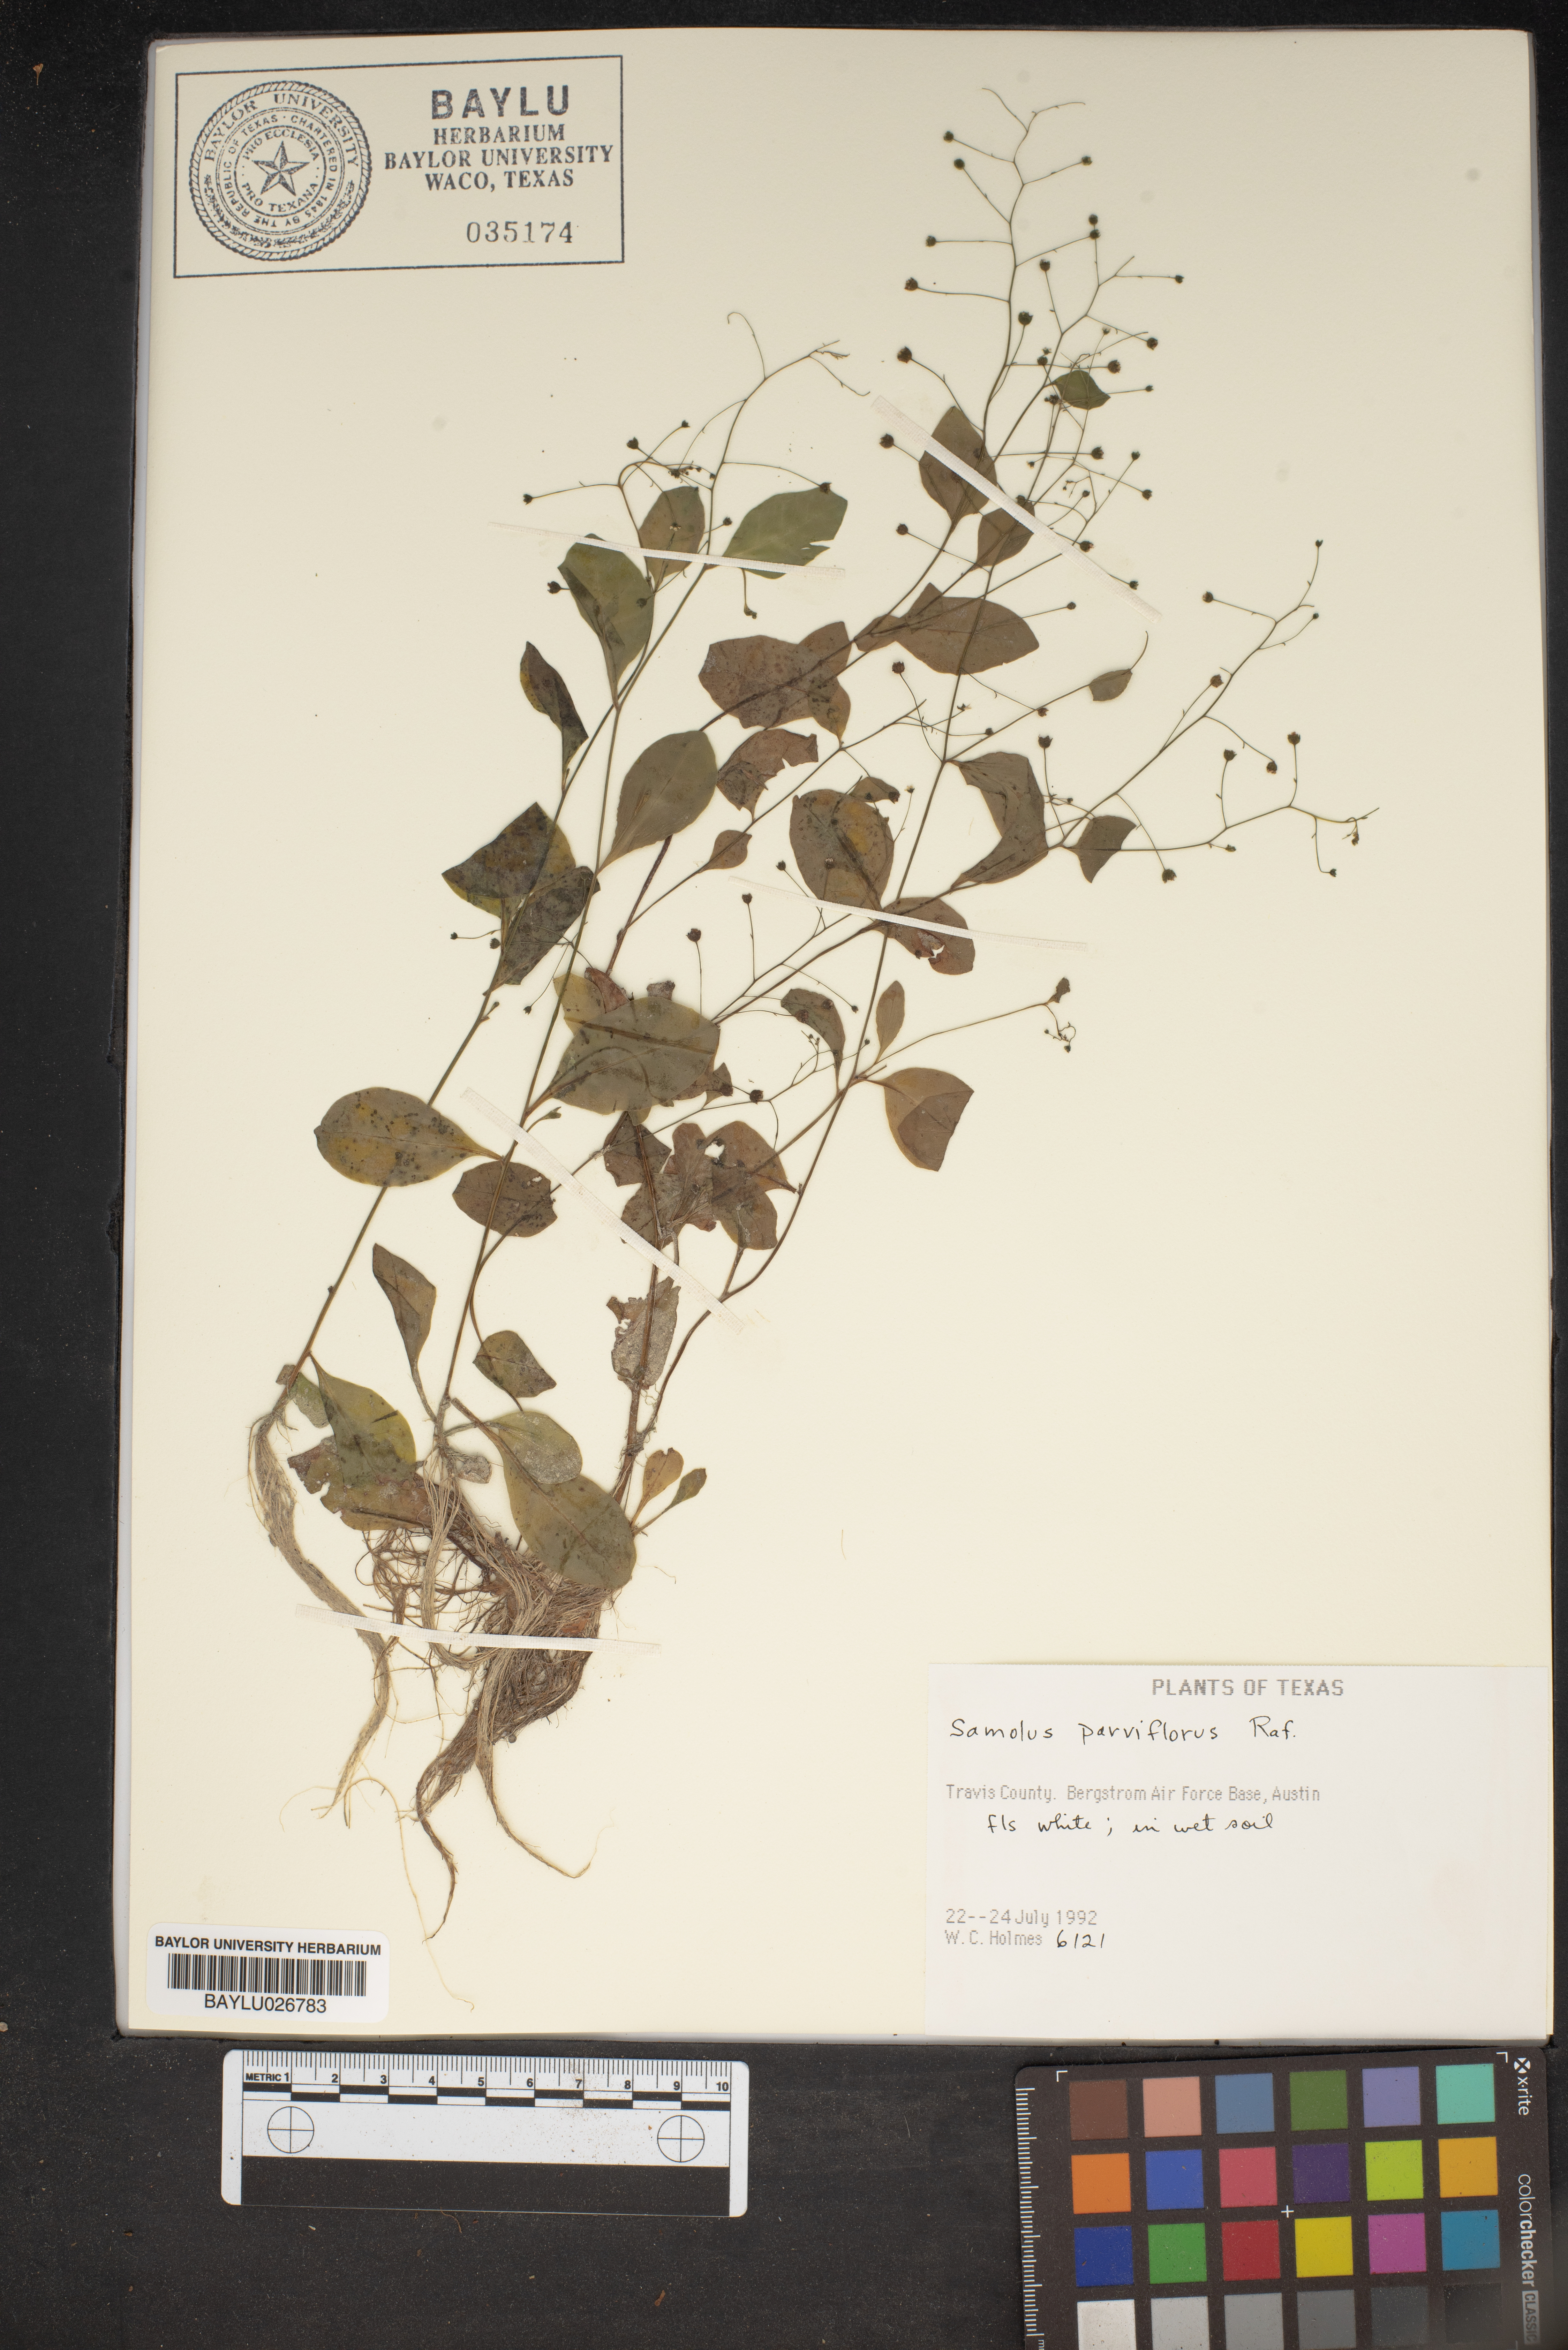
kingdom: Plantae
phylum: Tracheophyta
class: Magnoliopsida
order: Ericales
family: Primulaceae
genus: Samolus
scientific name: Samolus parviflorus
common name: False water pimpernel
